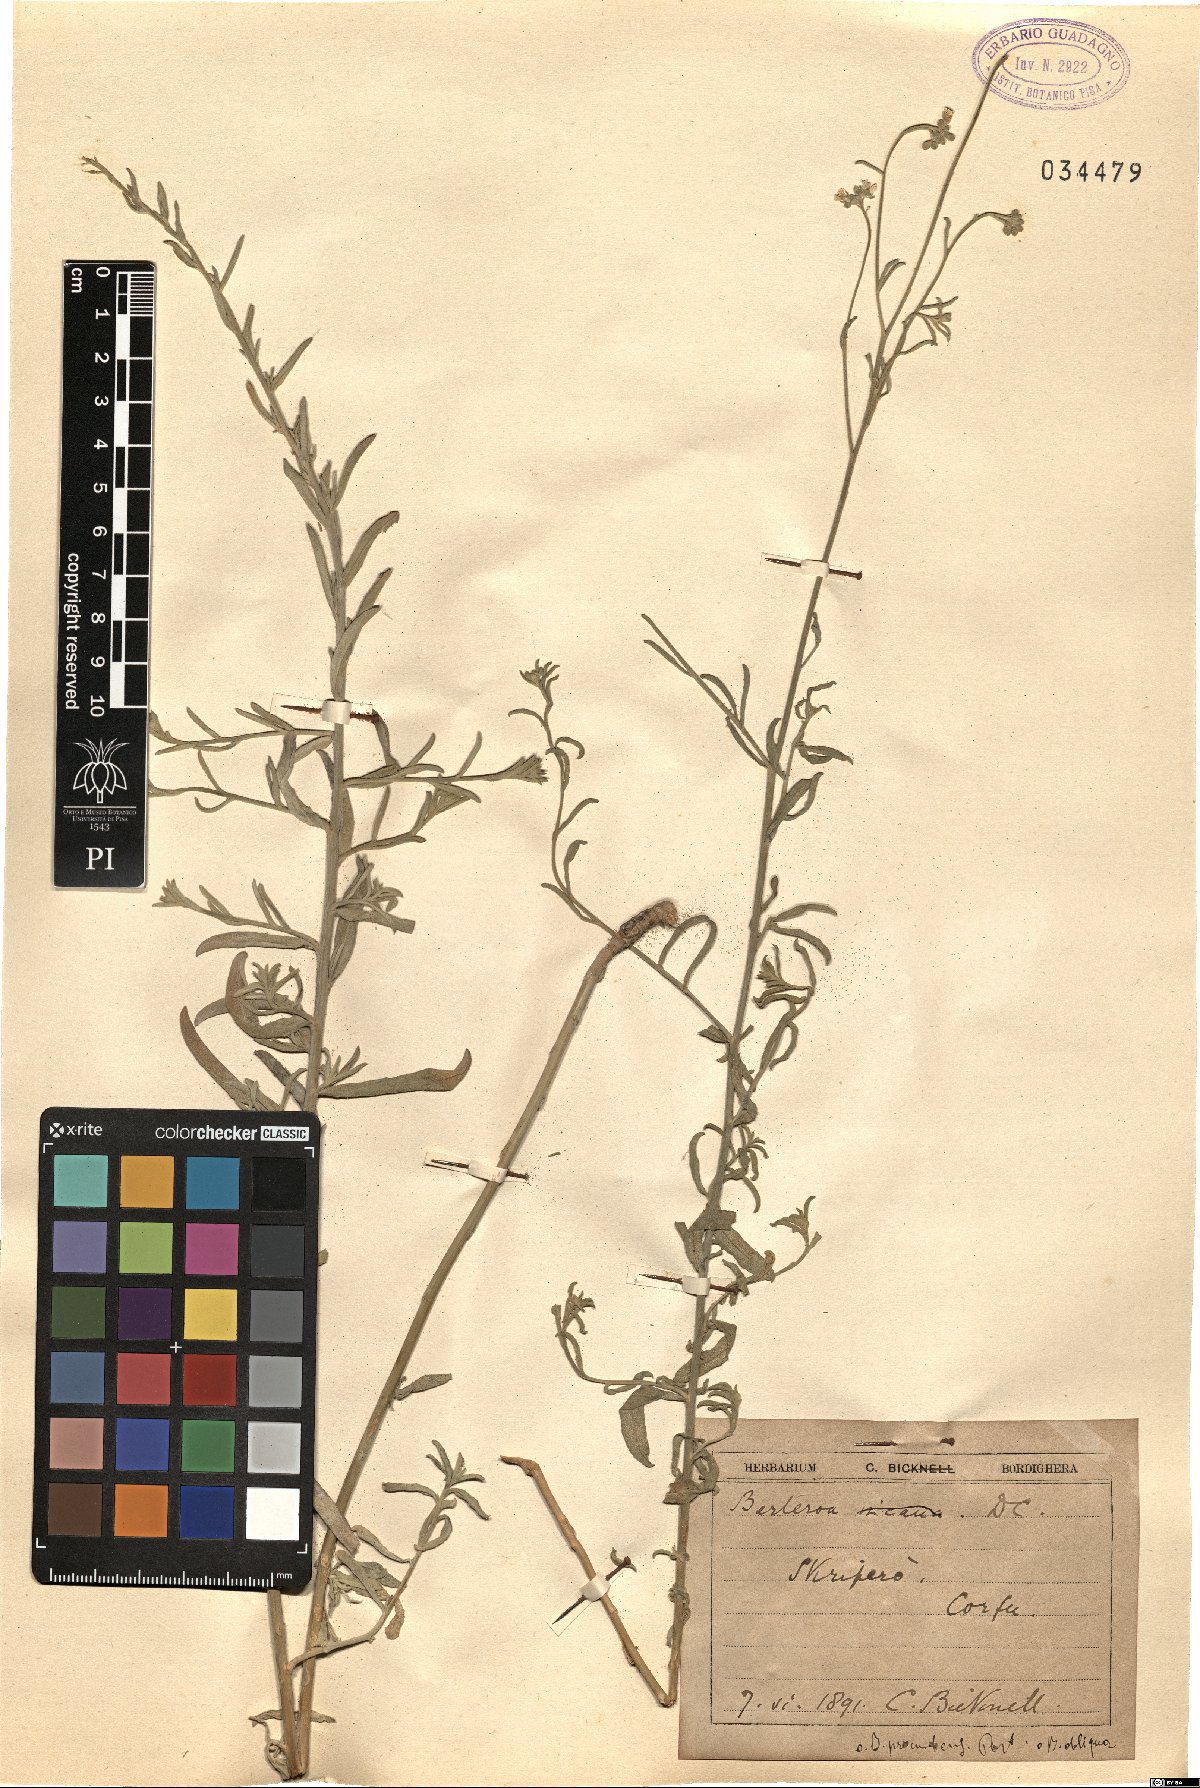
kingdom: Plantae
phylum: Tracheophyta
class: Magnoliopsida
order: Brassicales
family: Brassicaceae
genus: Berteroa
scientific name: Berteroa obliqua
